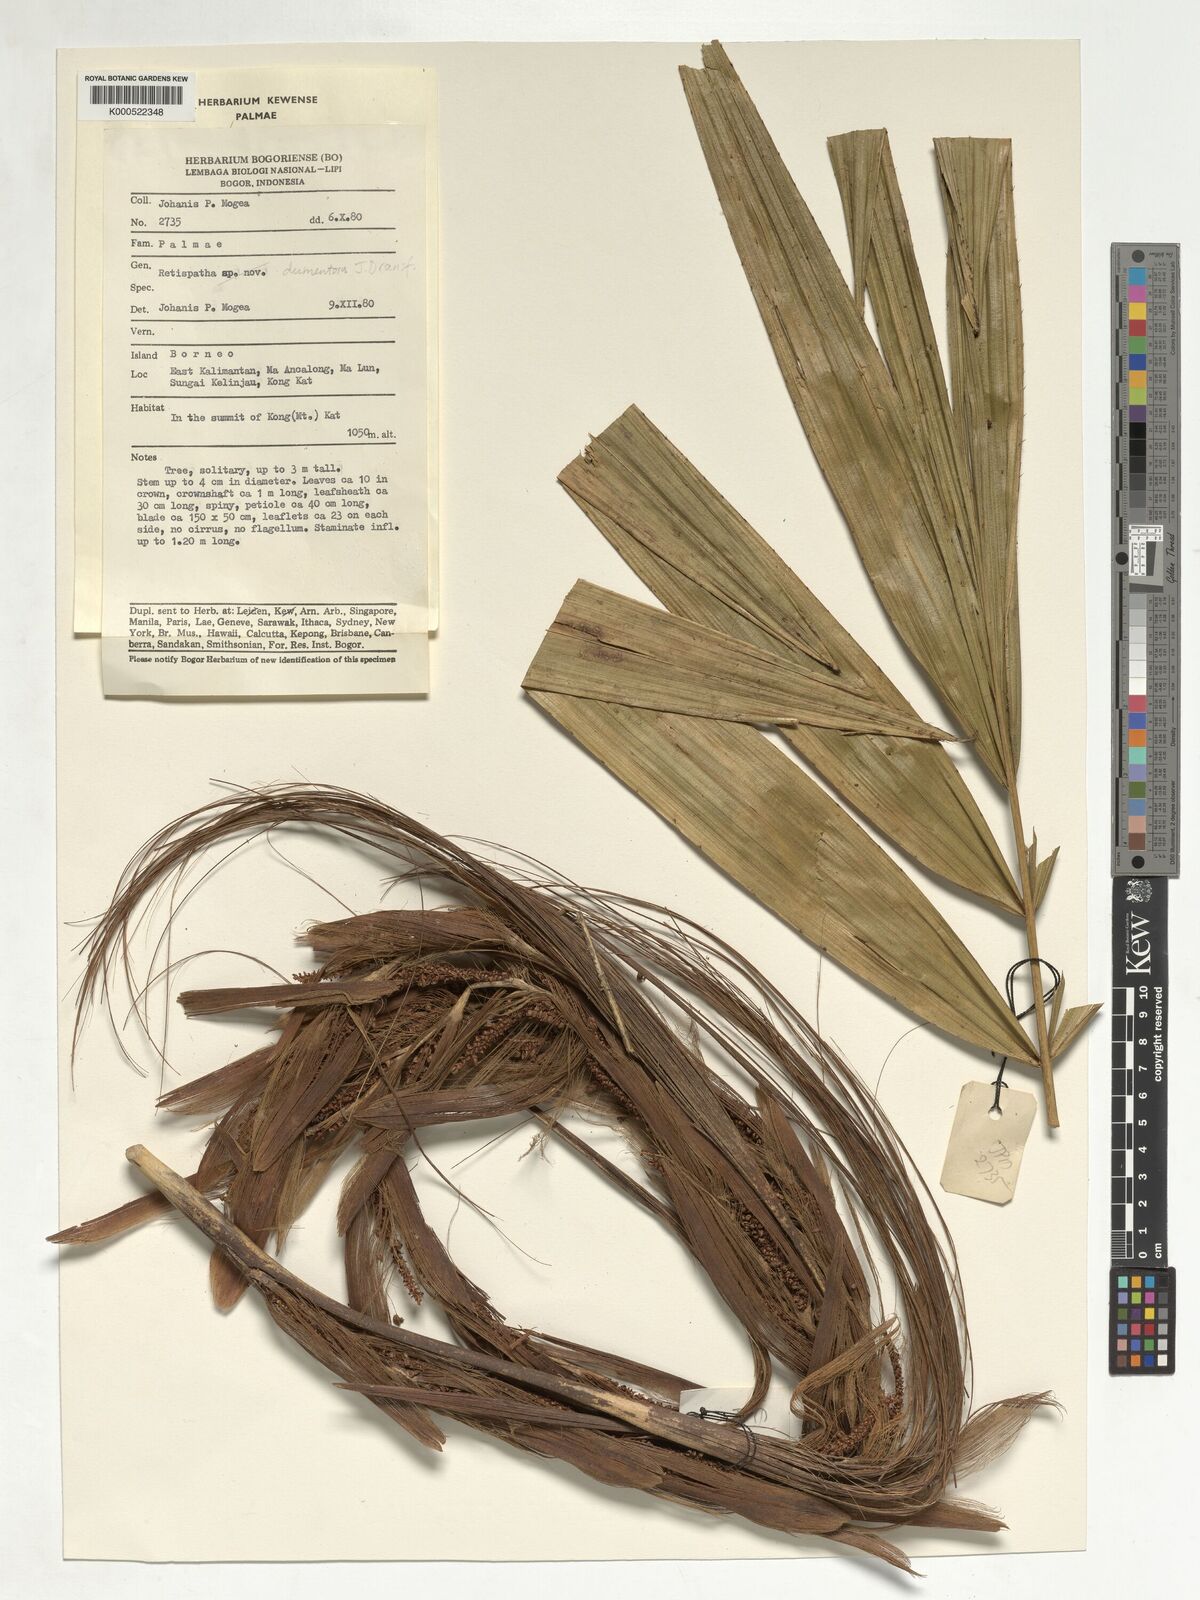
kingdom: Plantae
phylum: Tracheophyta
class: Liliopsida
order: Arecales
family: Arecaceae
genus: Calamus
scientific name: Calamus dumetosus
